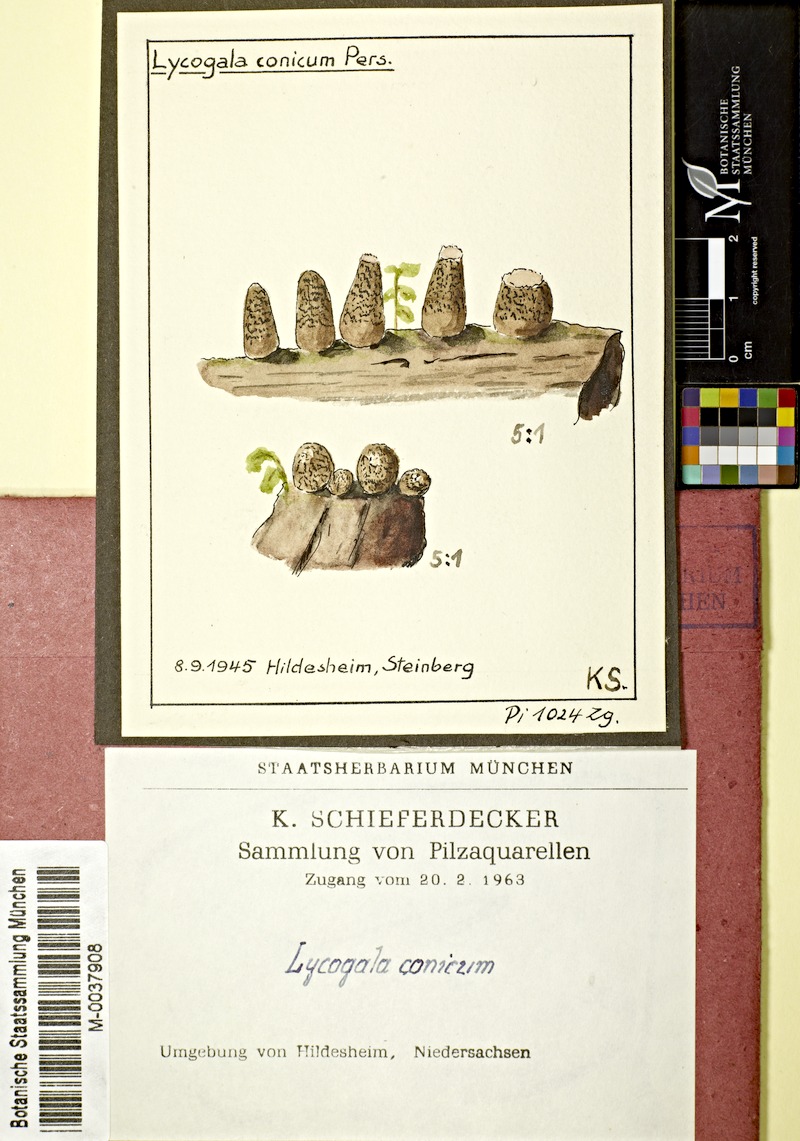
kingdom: Protozoa
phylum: Mycetozoa
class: Myxomycetes
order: Cribrariales
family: Tubiferaceae
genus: Lycogala
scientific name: Lycogala conicum
